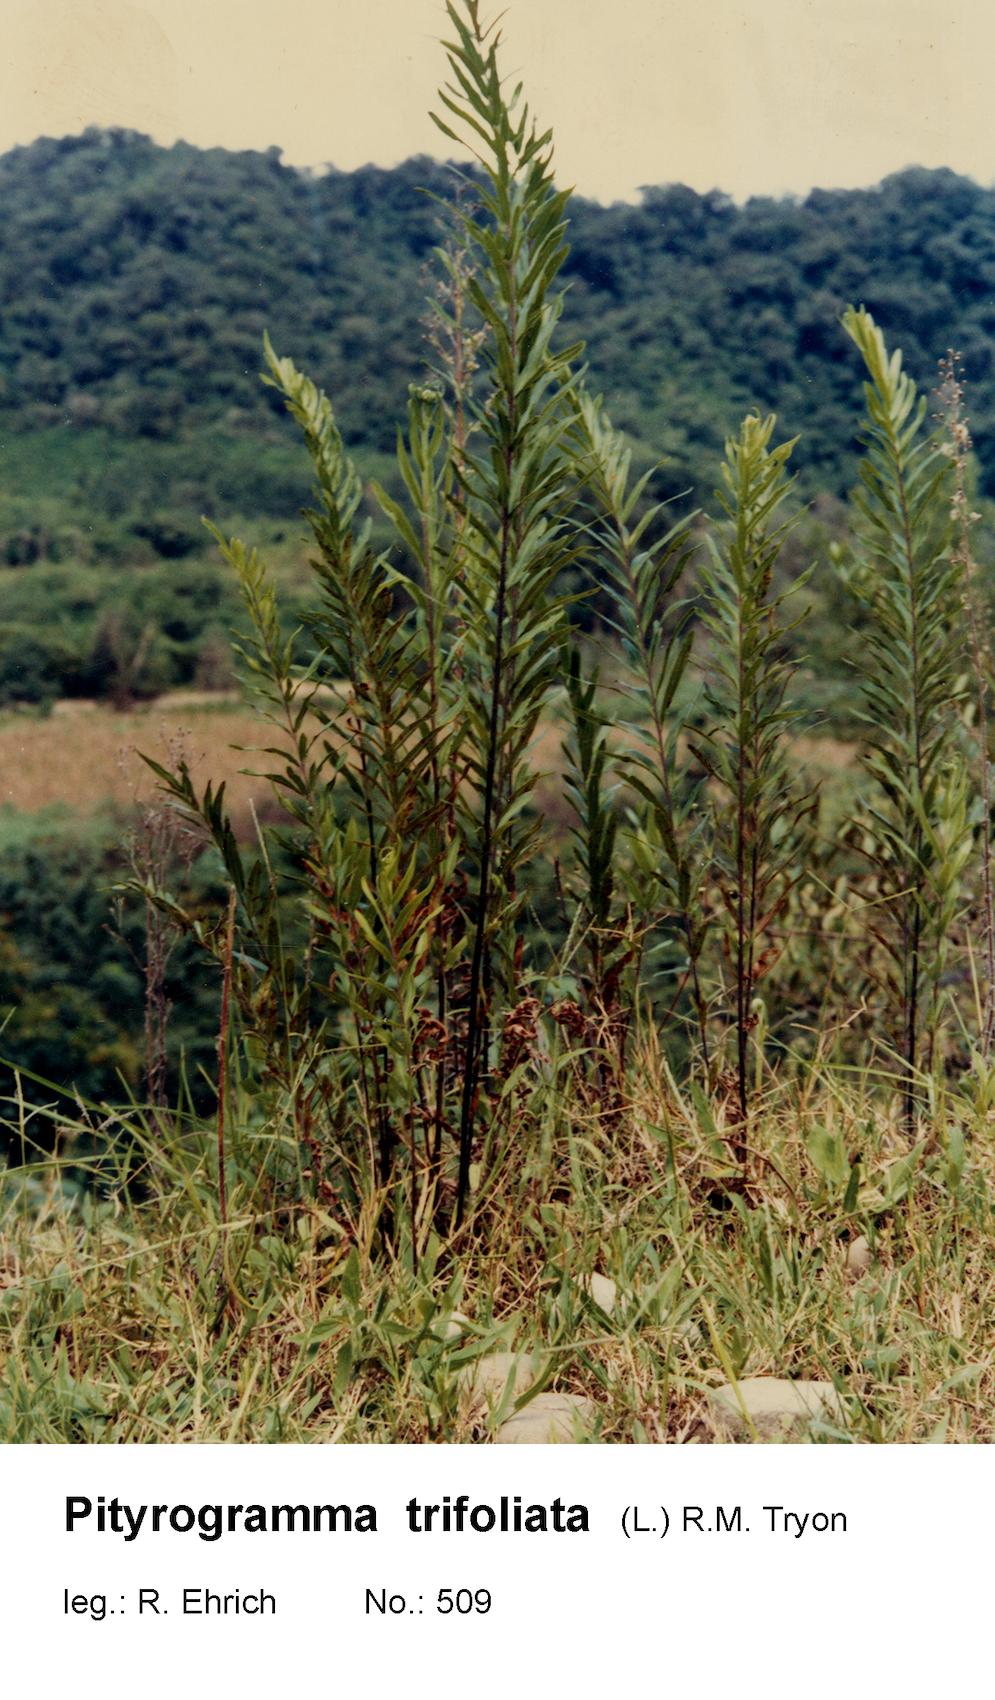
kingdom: Plantae
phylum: Tracheophyta
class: Polypodiopsida
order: Polypodiales
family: Pteridaceae
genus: Pityrogramma
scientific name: Pityrogramma trifoliata
